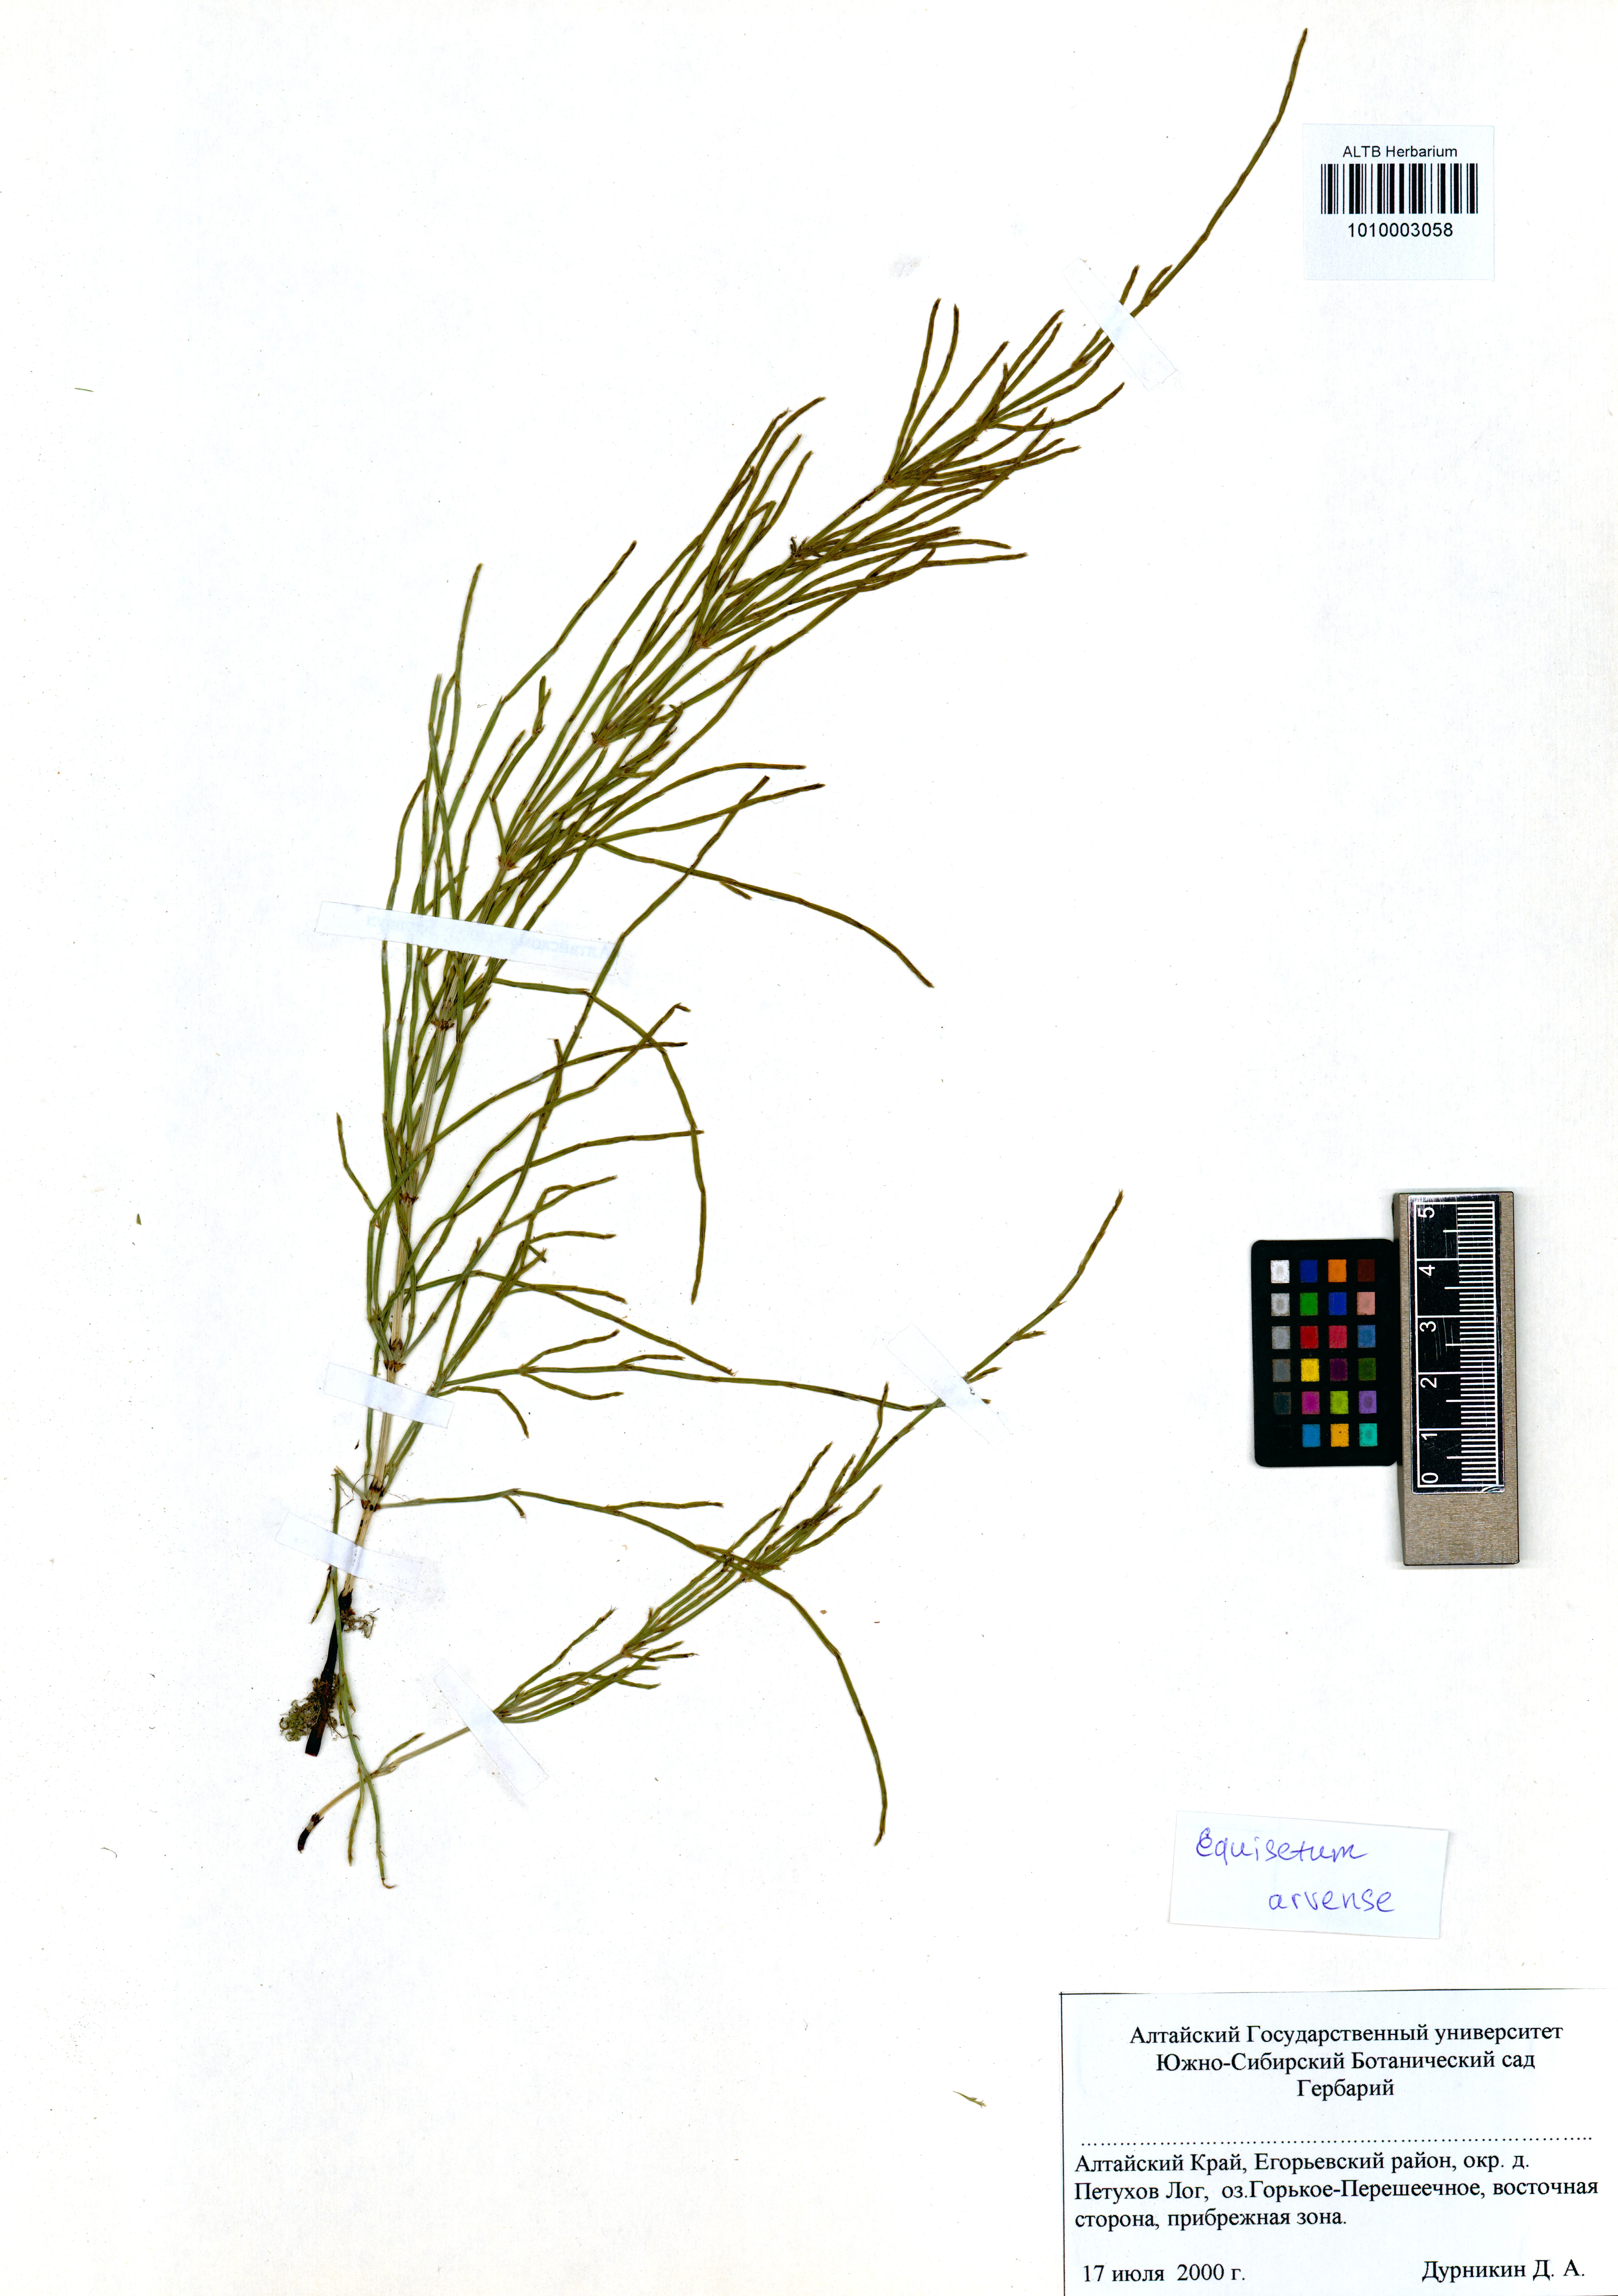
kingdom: Plantae
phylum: Tracheophyta
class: Polypodiopsida
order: Equisetales
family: Equisetaceae
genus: Equisetum
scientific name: Equisetum arvense
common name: Field horsetail
